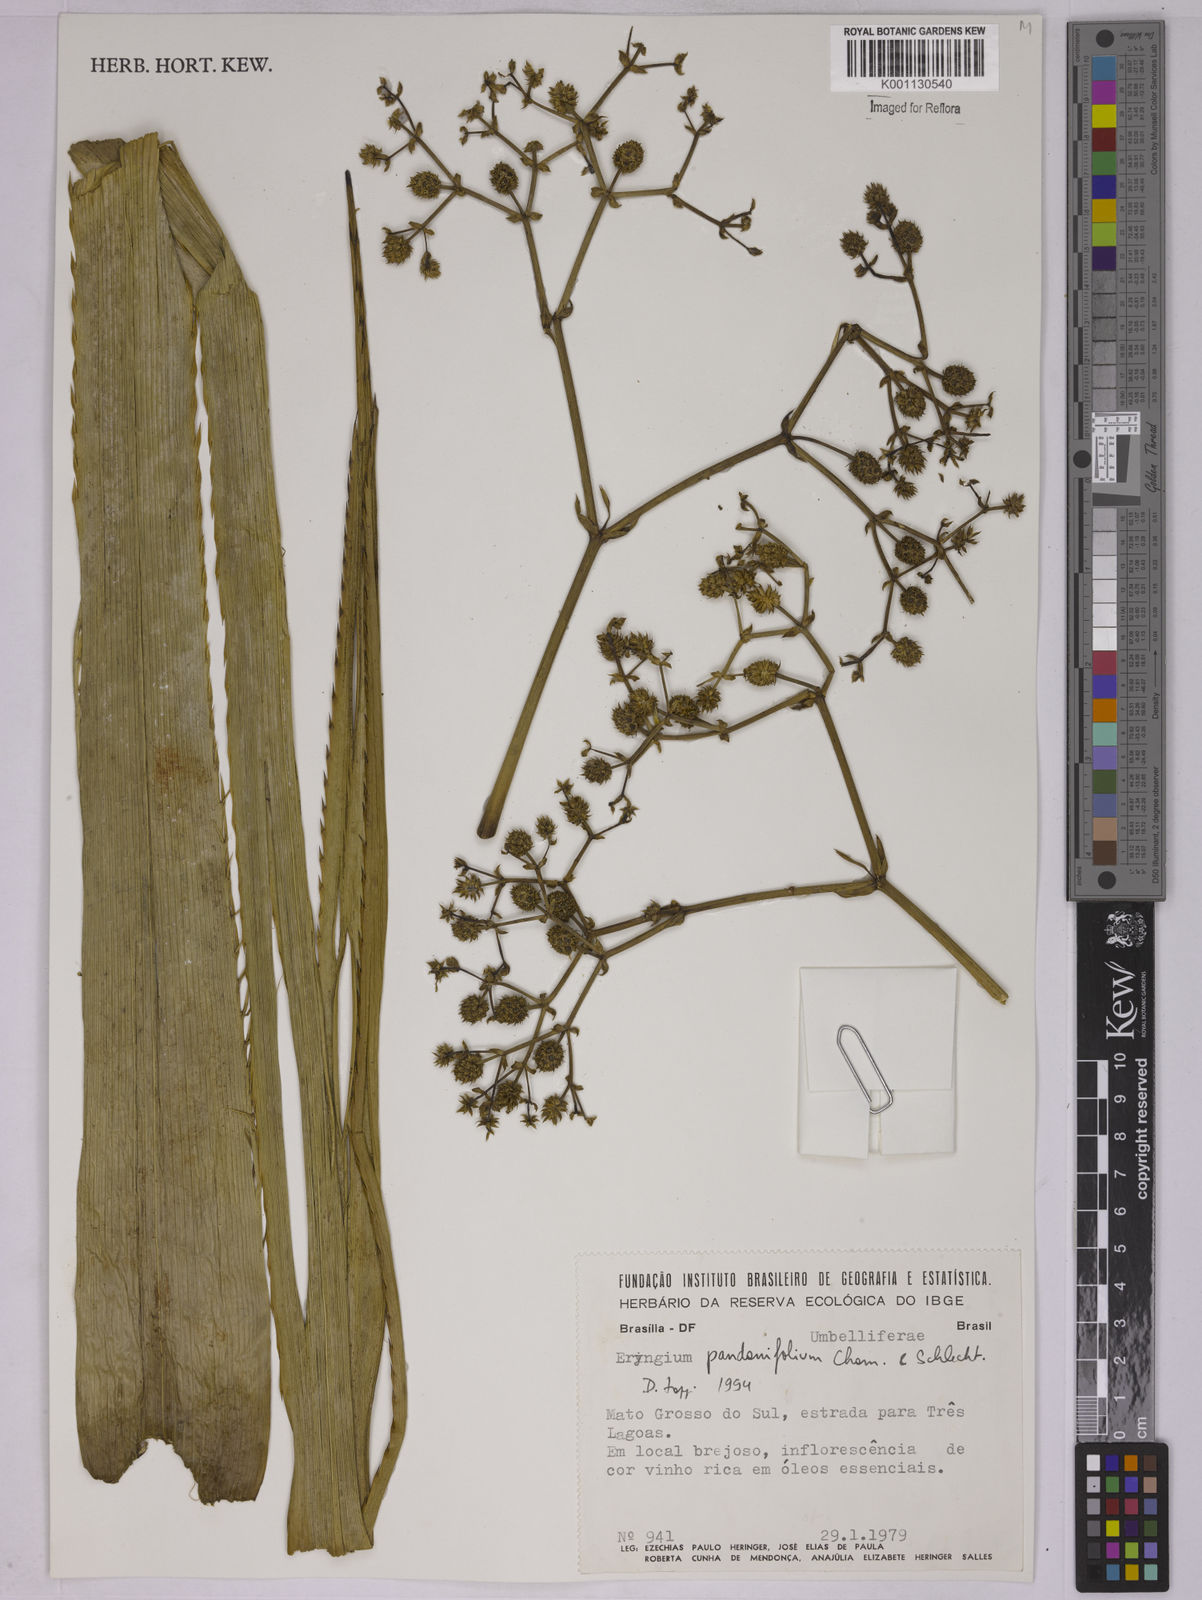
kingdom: Plantae
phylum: Tracheophyta
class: Magnoliopsida
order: Apiales
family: Apiaceae
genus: Eryngium
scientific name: Eryngium pandanifolium
